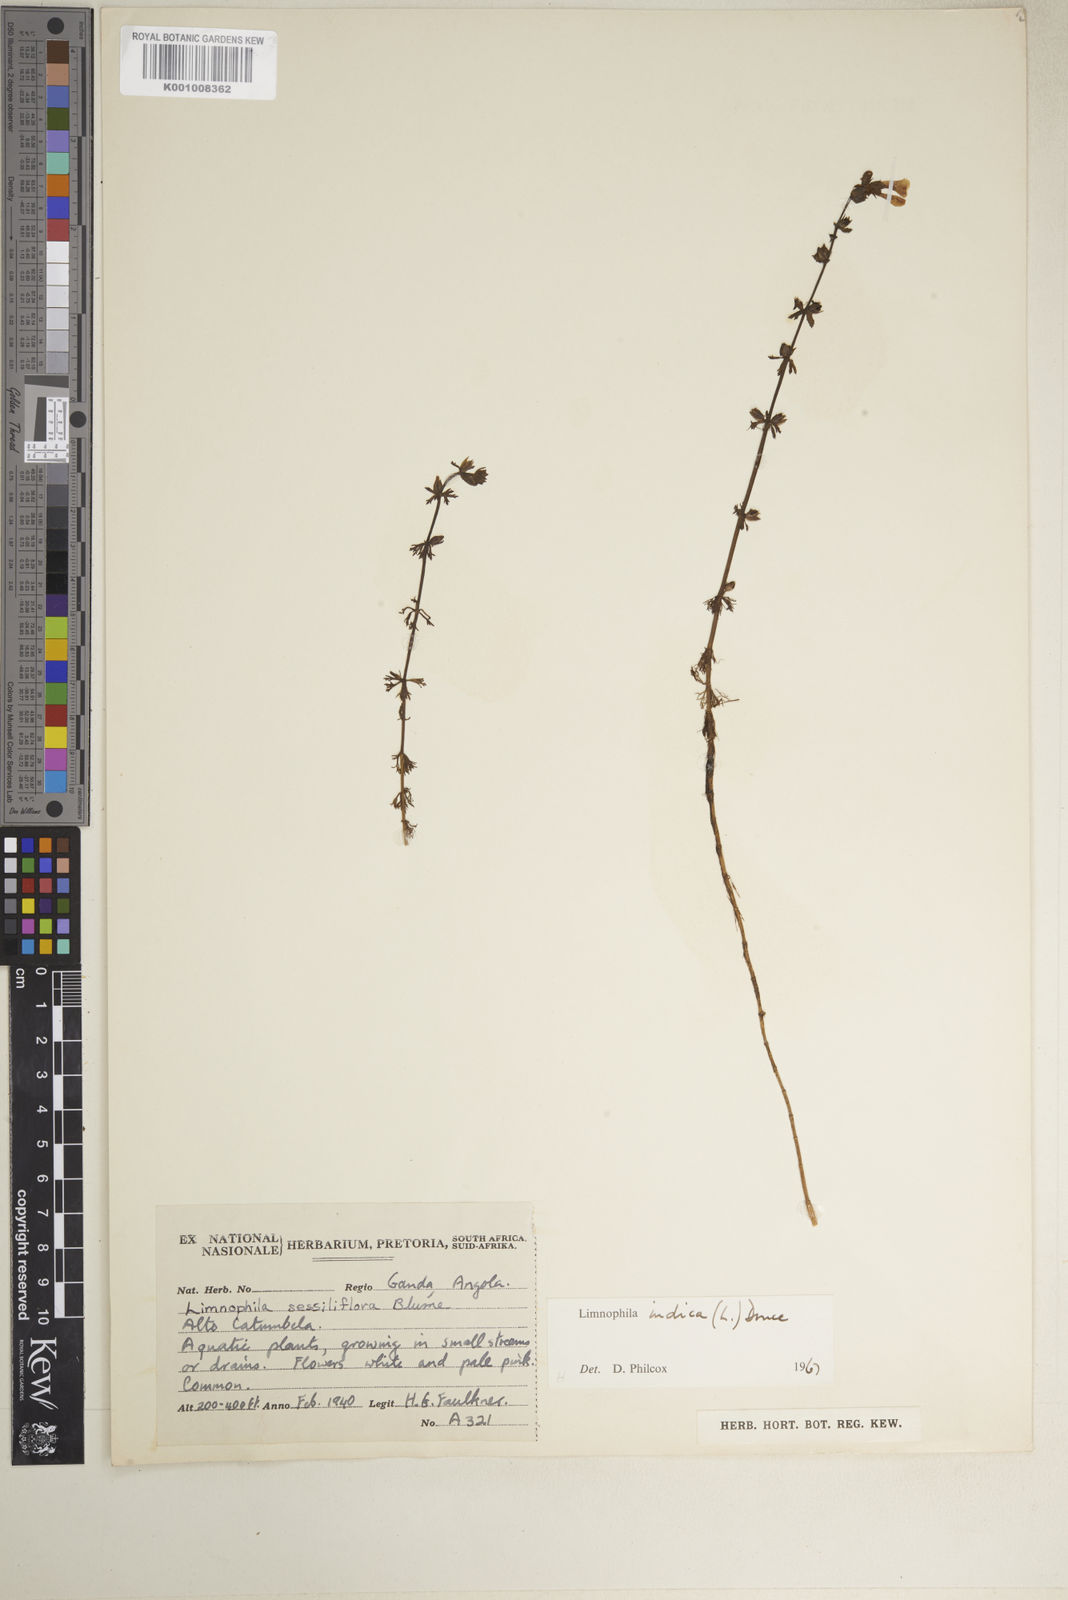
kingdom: Plantae
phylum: Tracheophyta
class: Magnoliopsida
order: Lamiales
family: Plantaginaceae
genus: Limnophila
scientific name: Limnophila indica
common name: Indian marshweed
